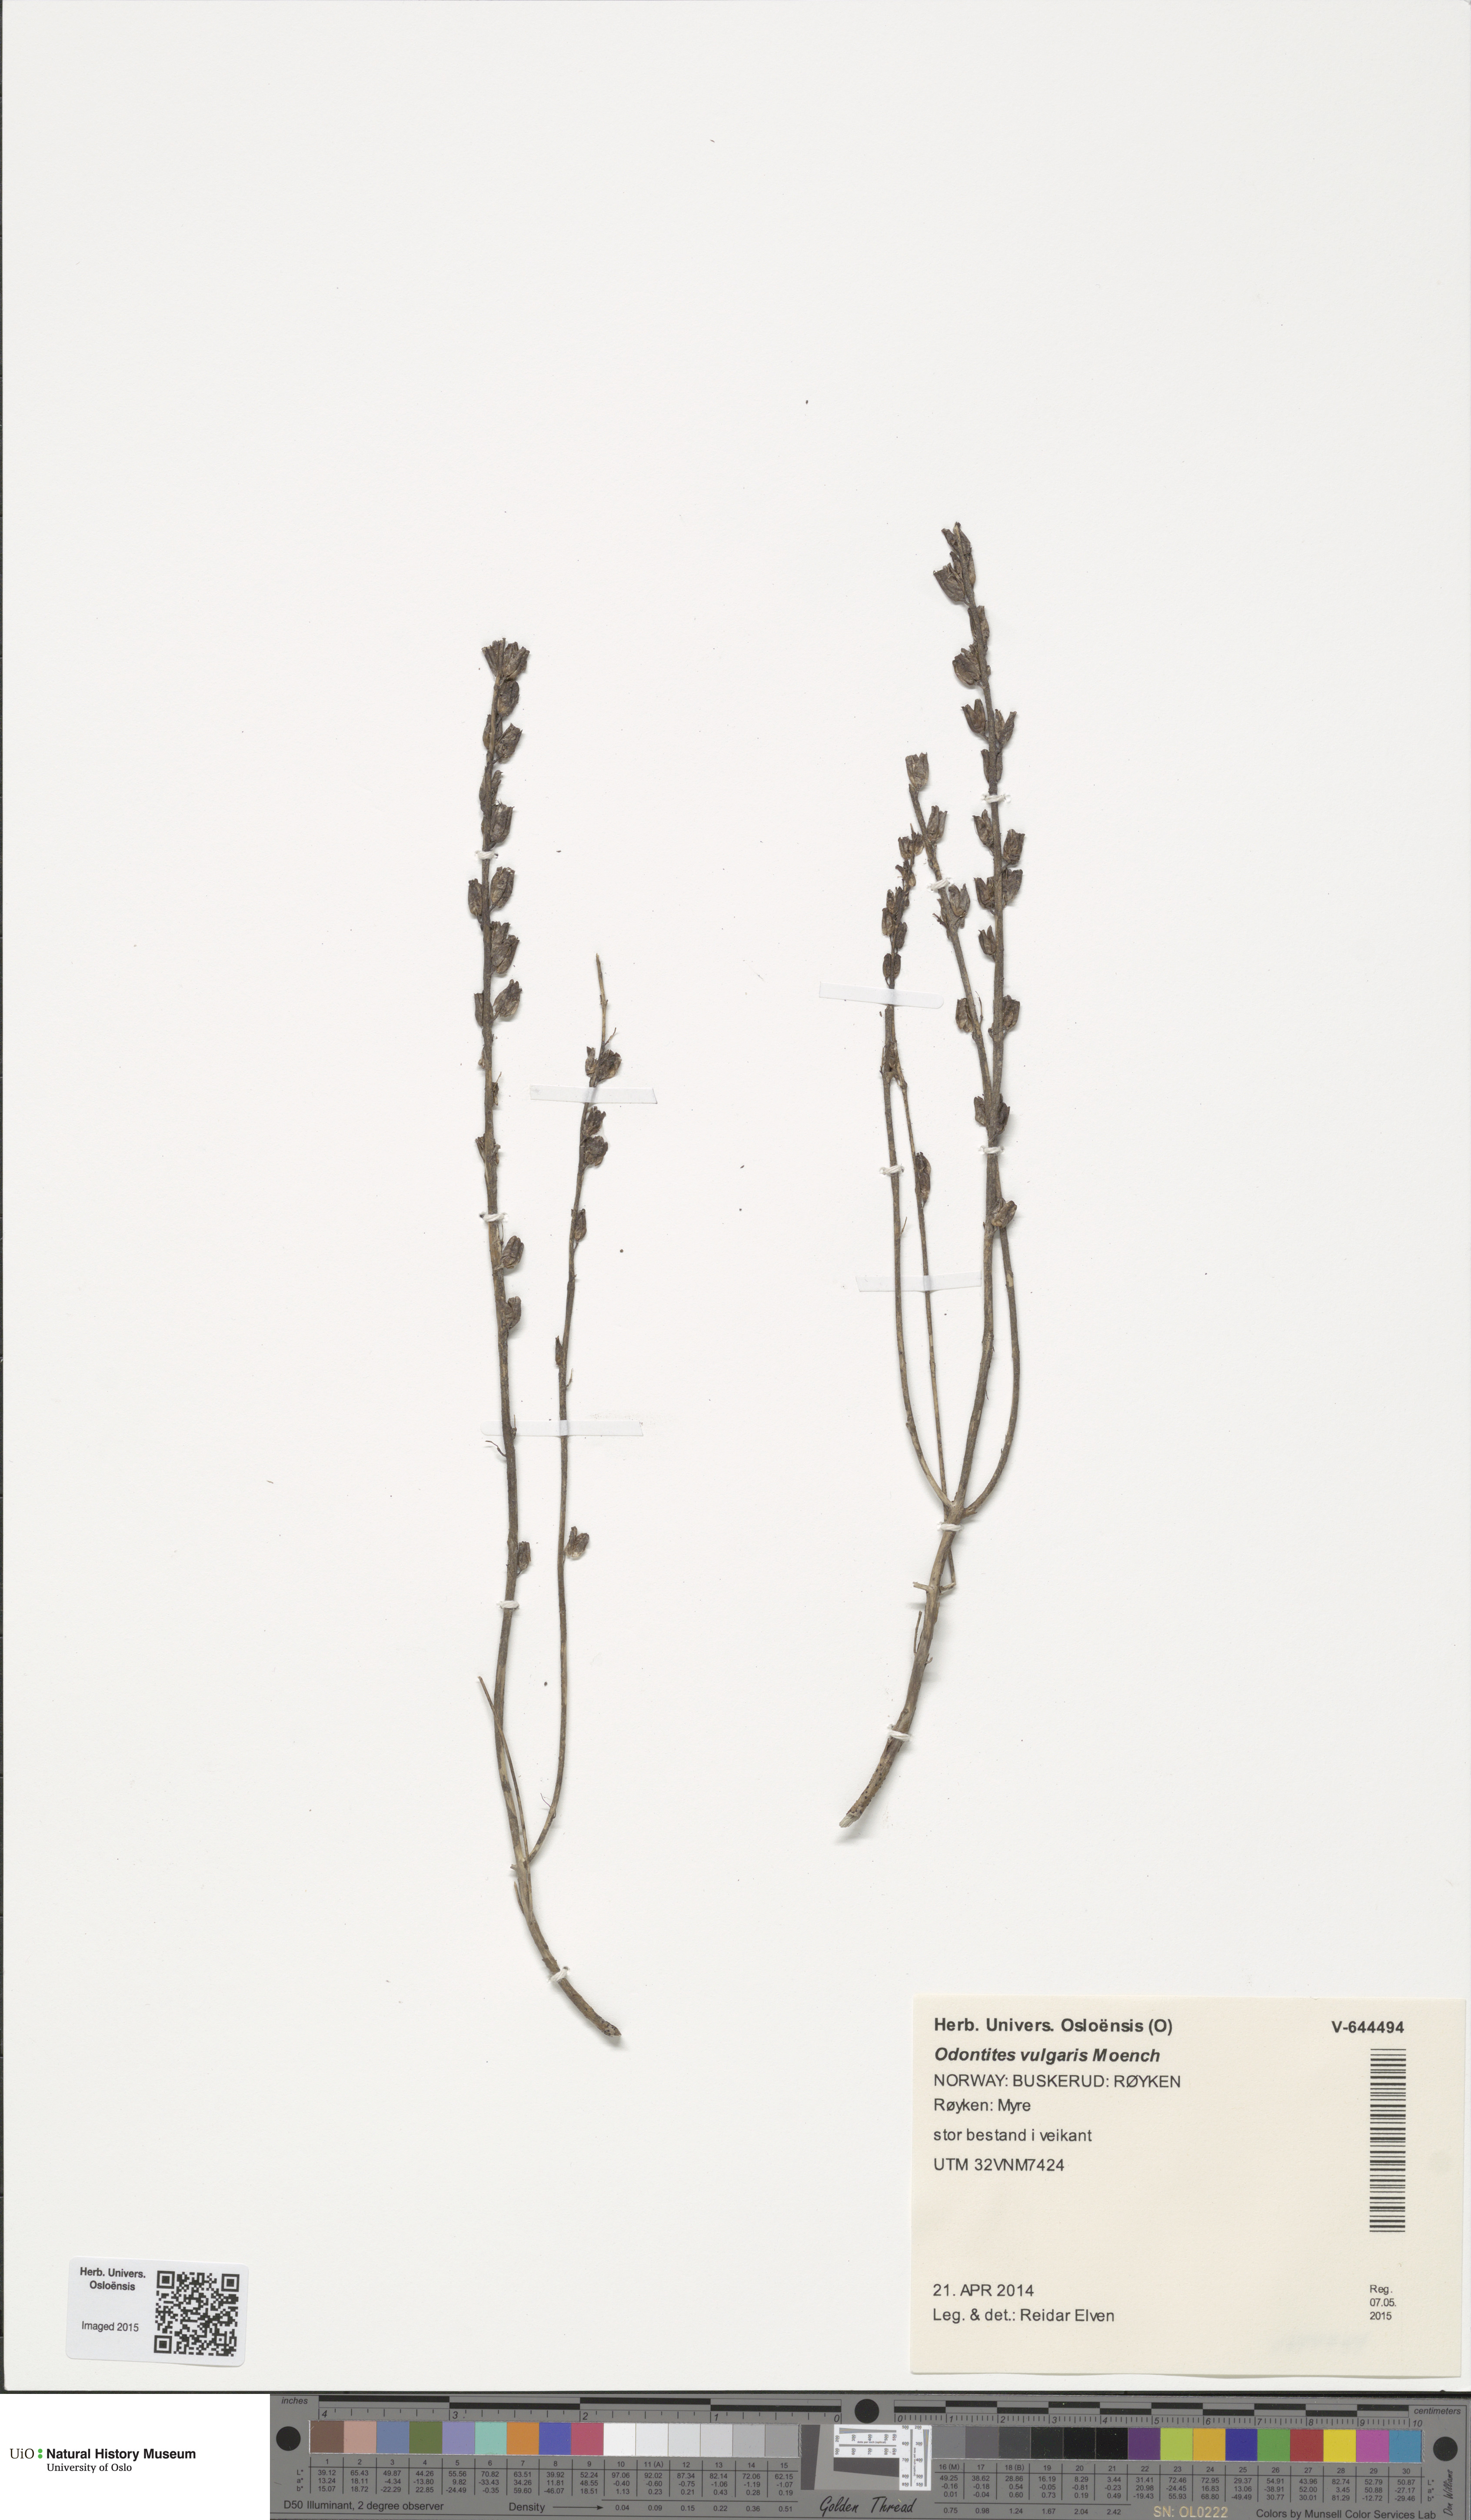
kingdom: Plantae
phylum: Tracheophyta
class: Magnoliopsida
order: Lamiales
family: Orobanchaceae
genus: Odontites
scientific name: Odontites vulgaris
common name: Broomrape
